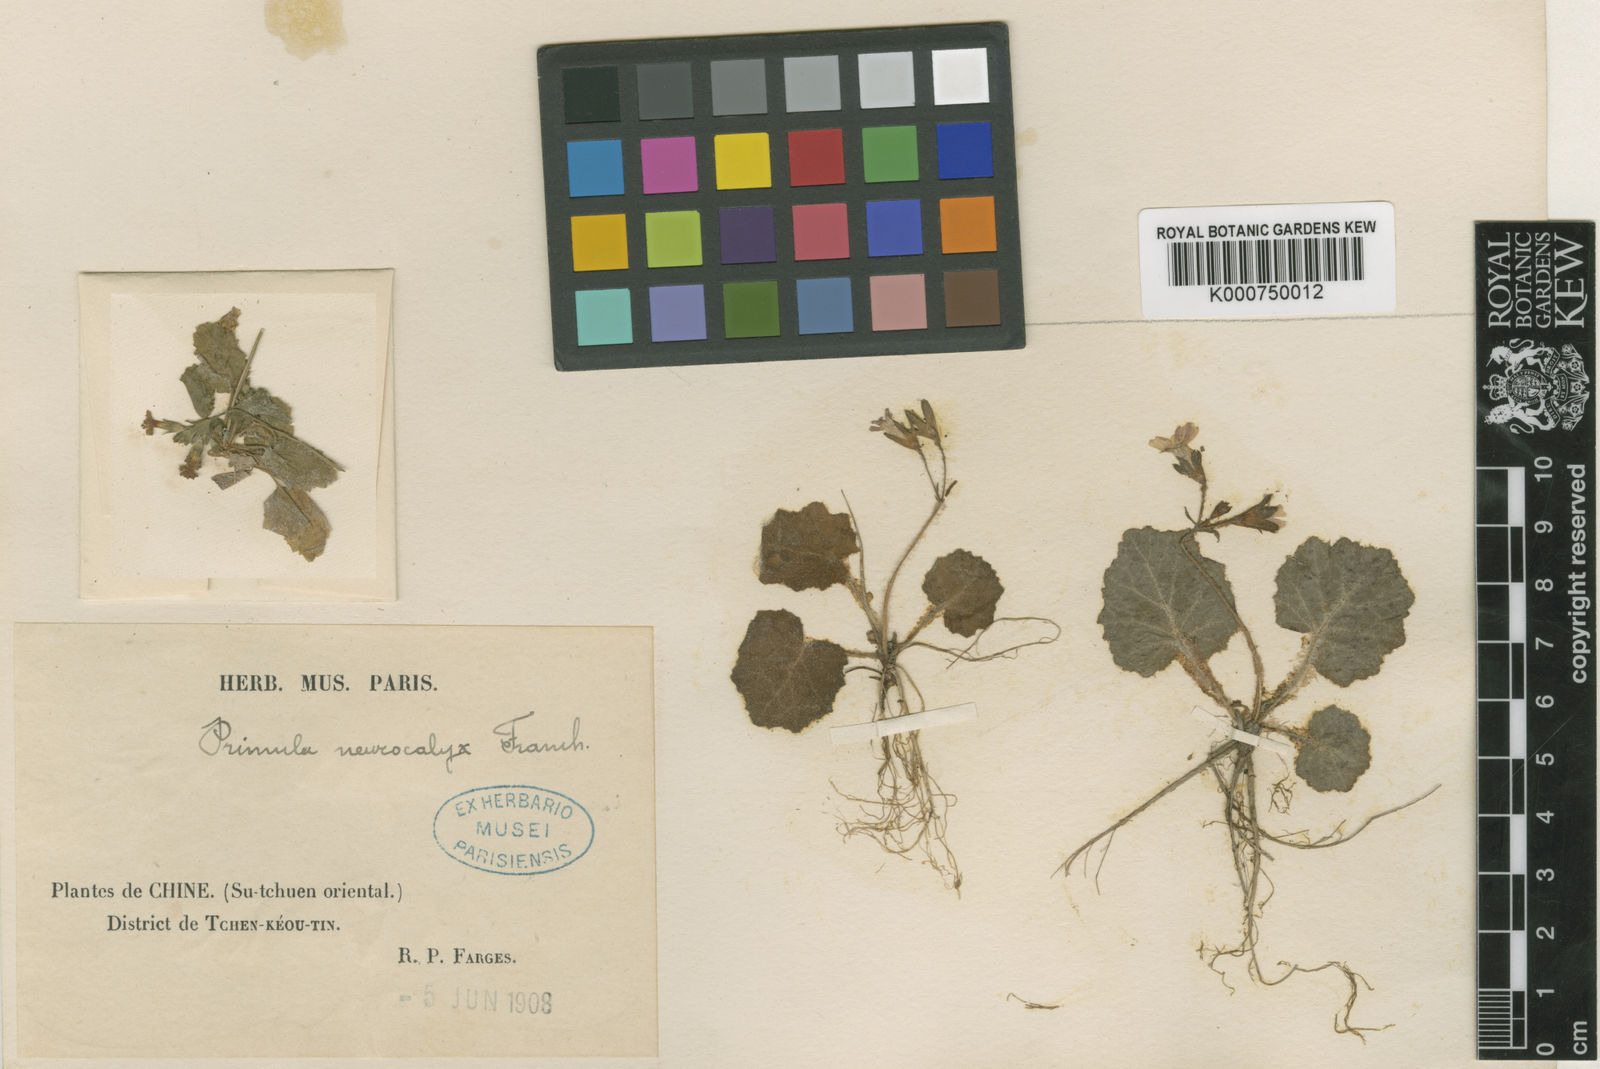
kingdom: Plantae
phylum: Tracheophyta
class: Magnoliopsida
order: Ericales
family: Primulaceae
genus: Primula
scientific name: Primula neurocalyx
